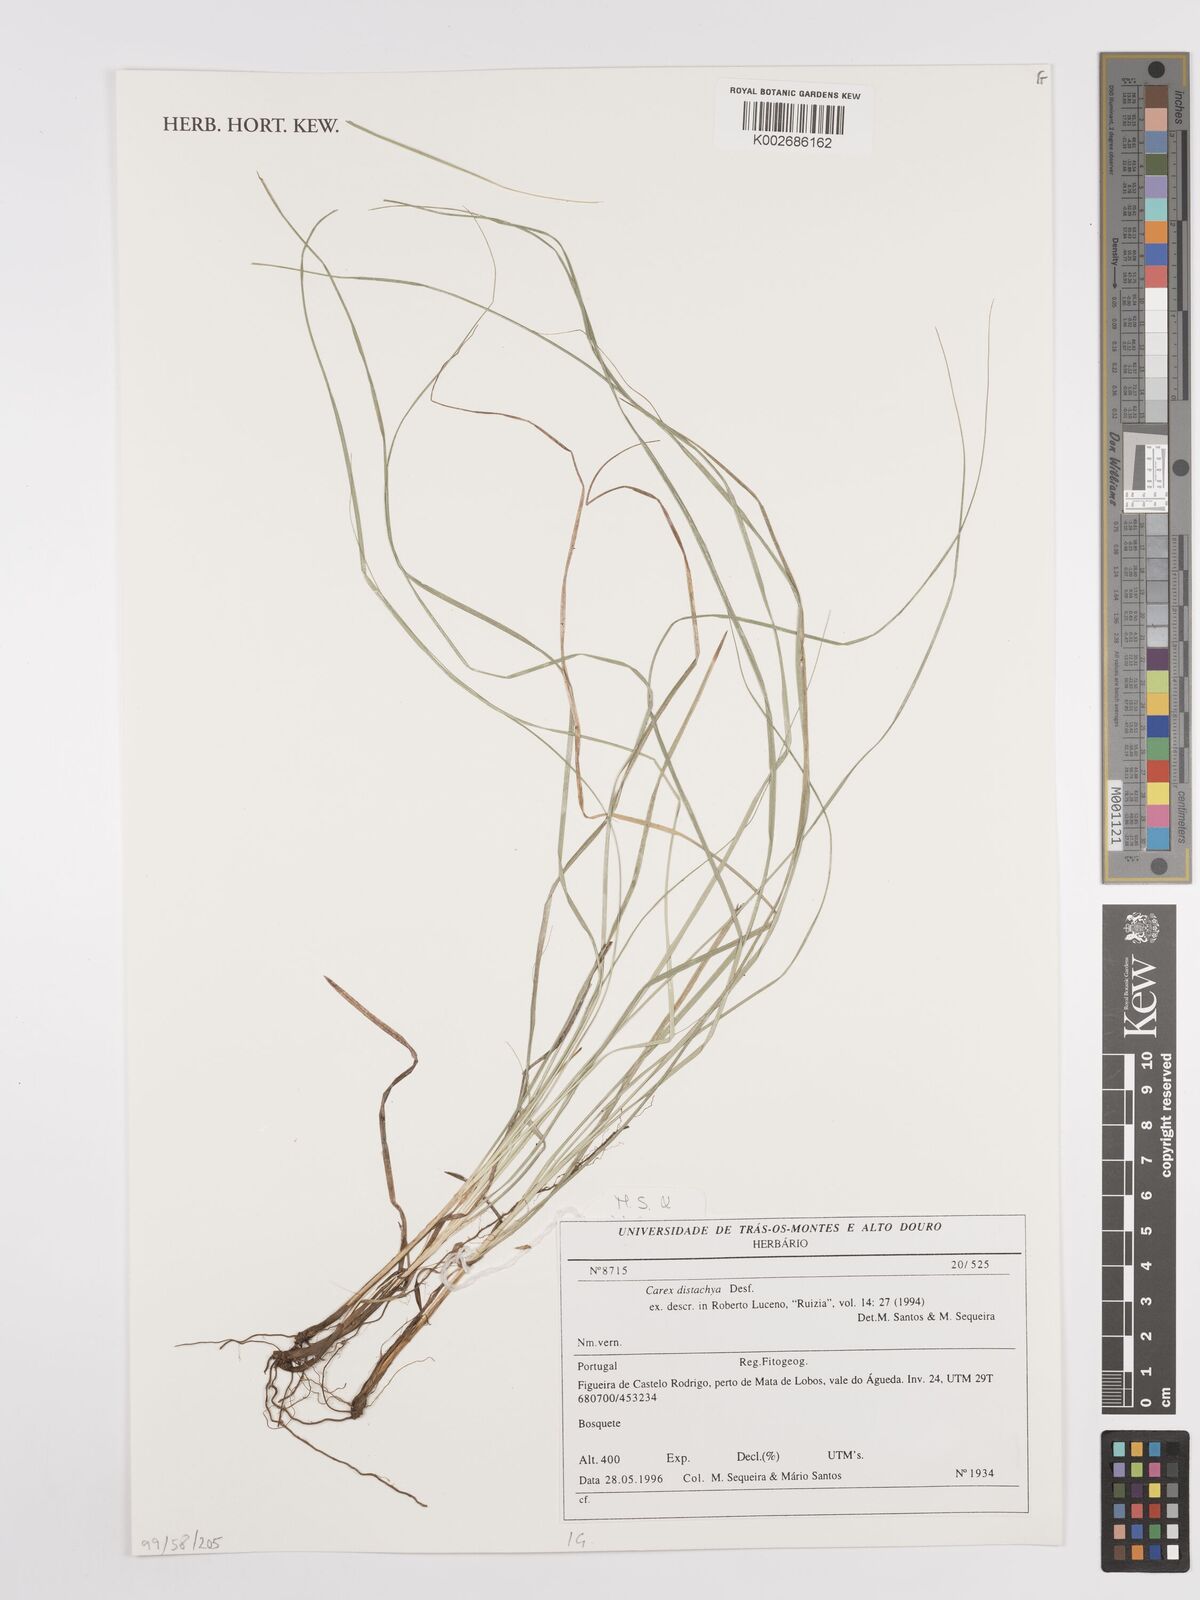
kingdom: Plantae
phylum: Tracheophyta
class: Liliopsida
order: Poales
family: Cyperaceae
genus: Carex
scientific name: Carex distachya
